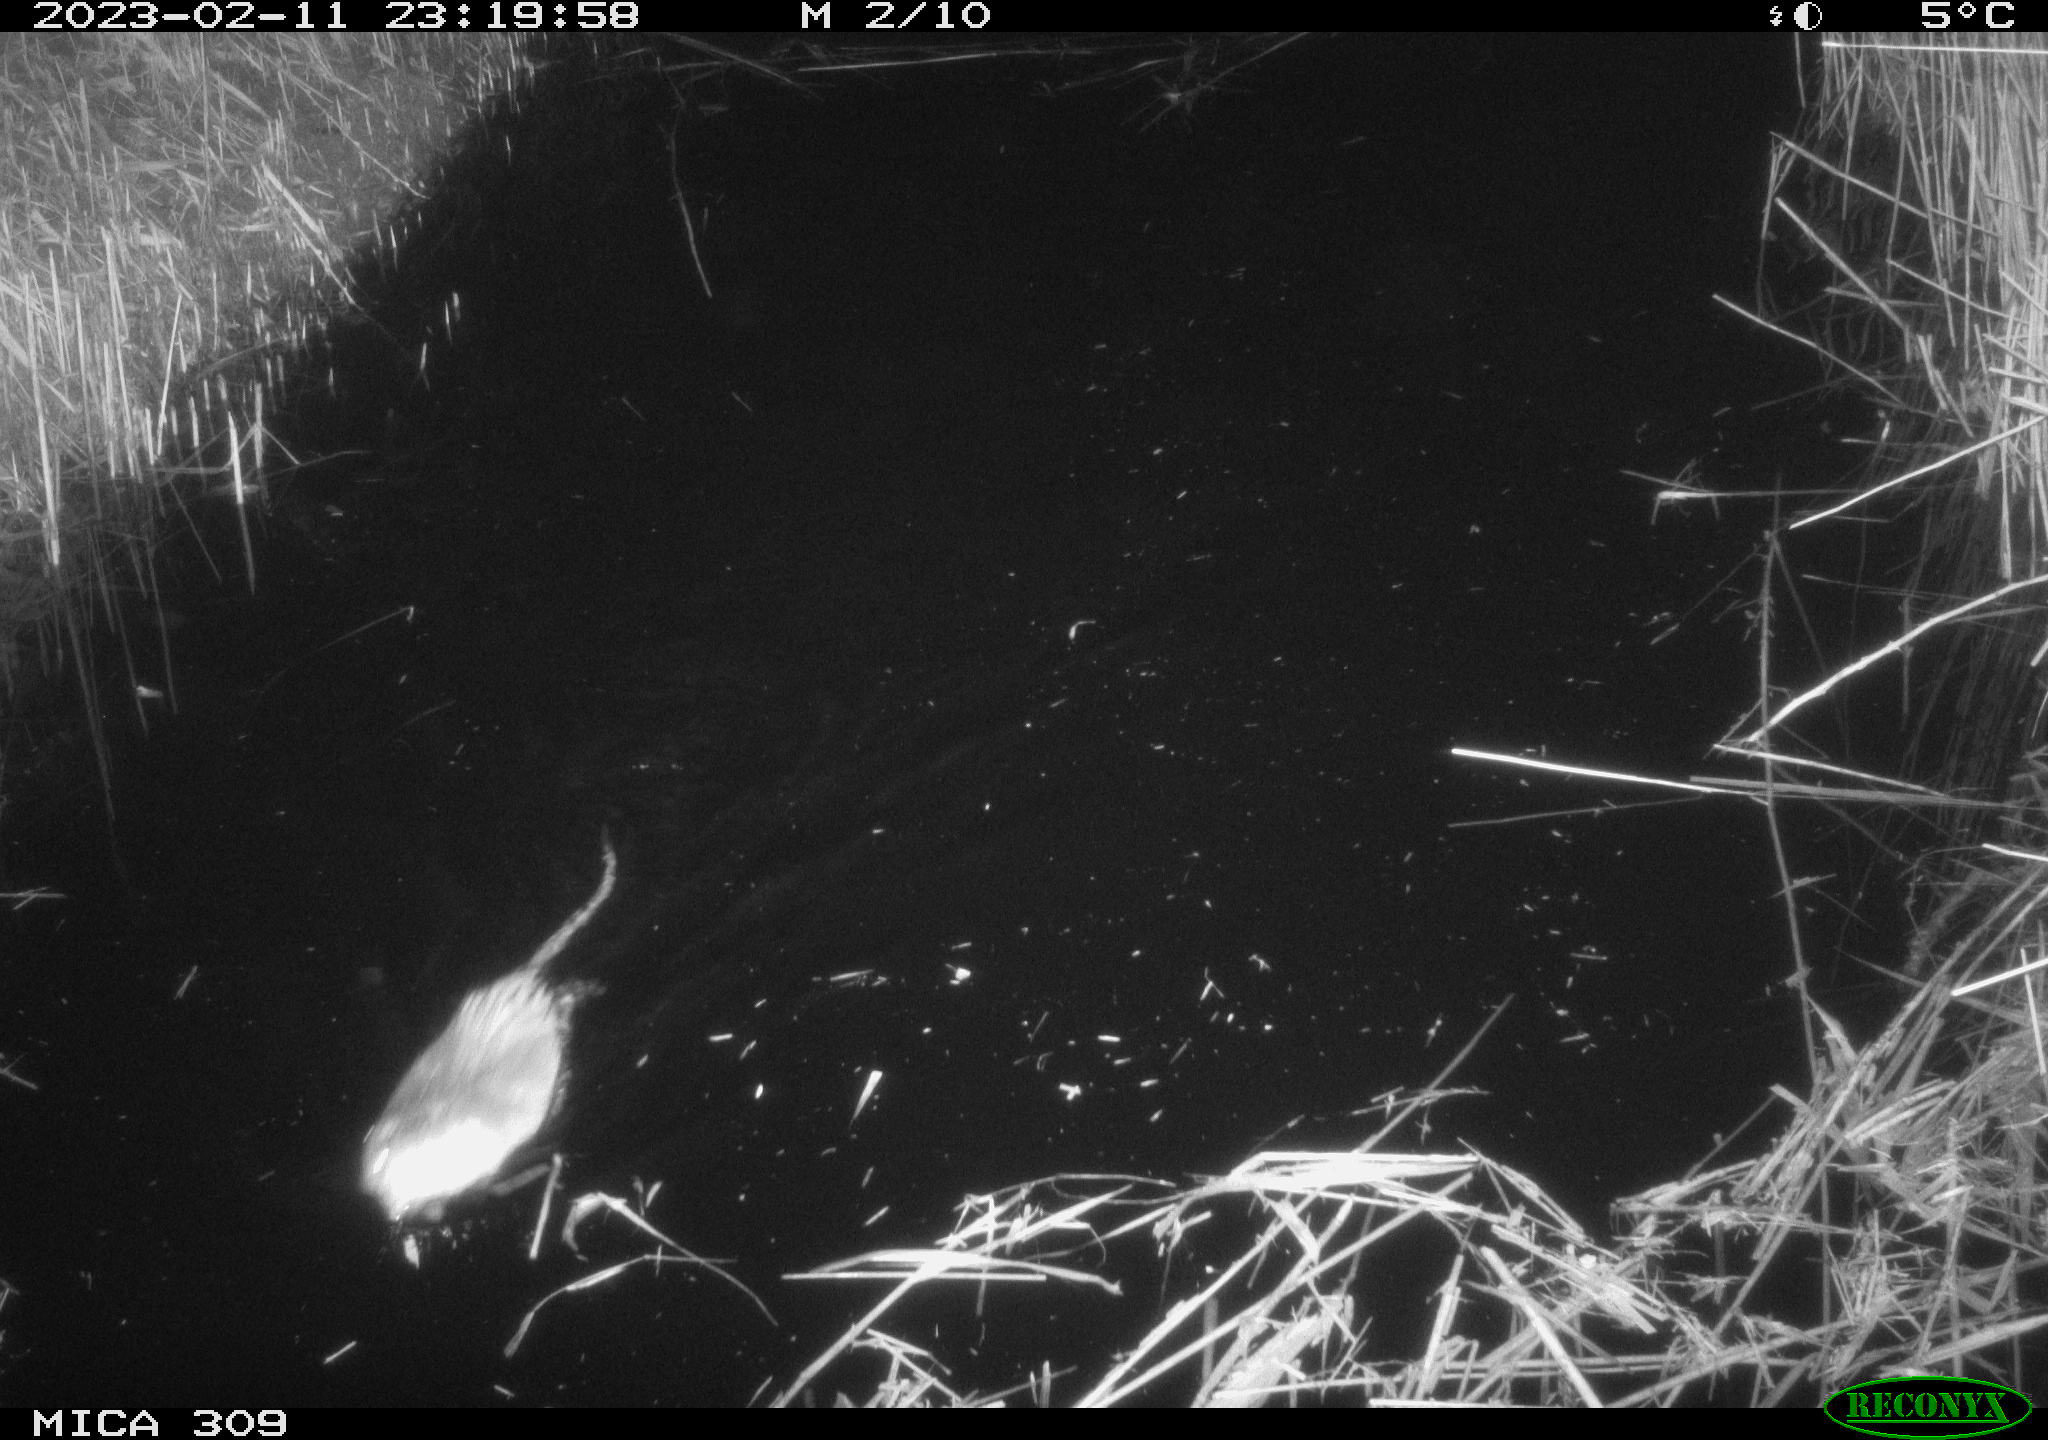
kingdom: Animalia
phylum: Chordata
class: Mammalia
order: Rodentia
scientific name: Rodentia
